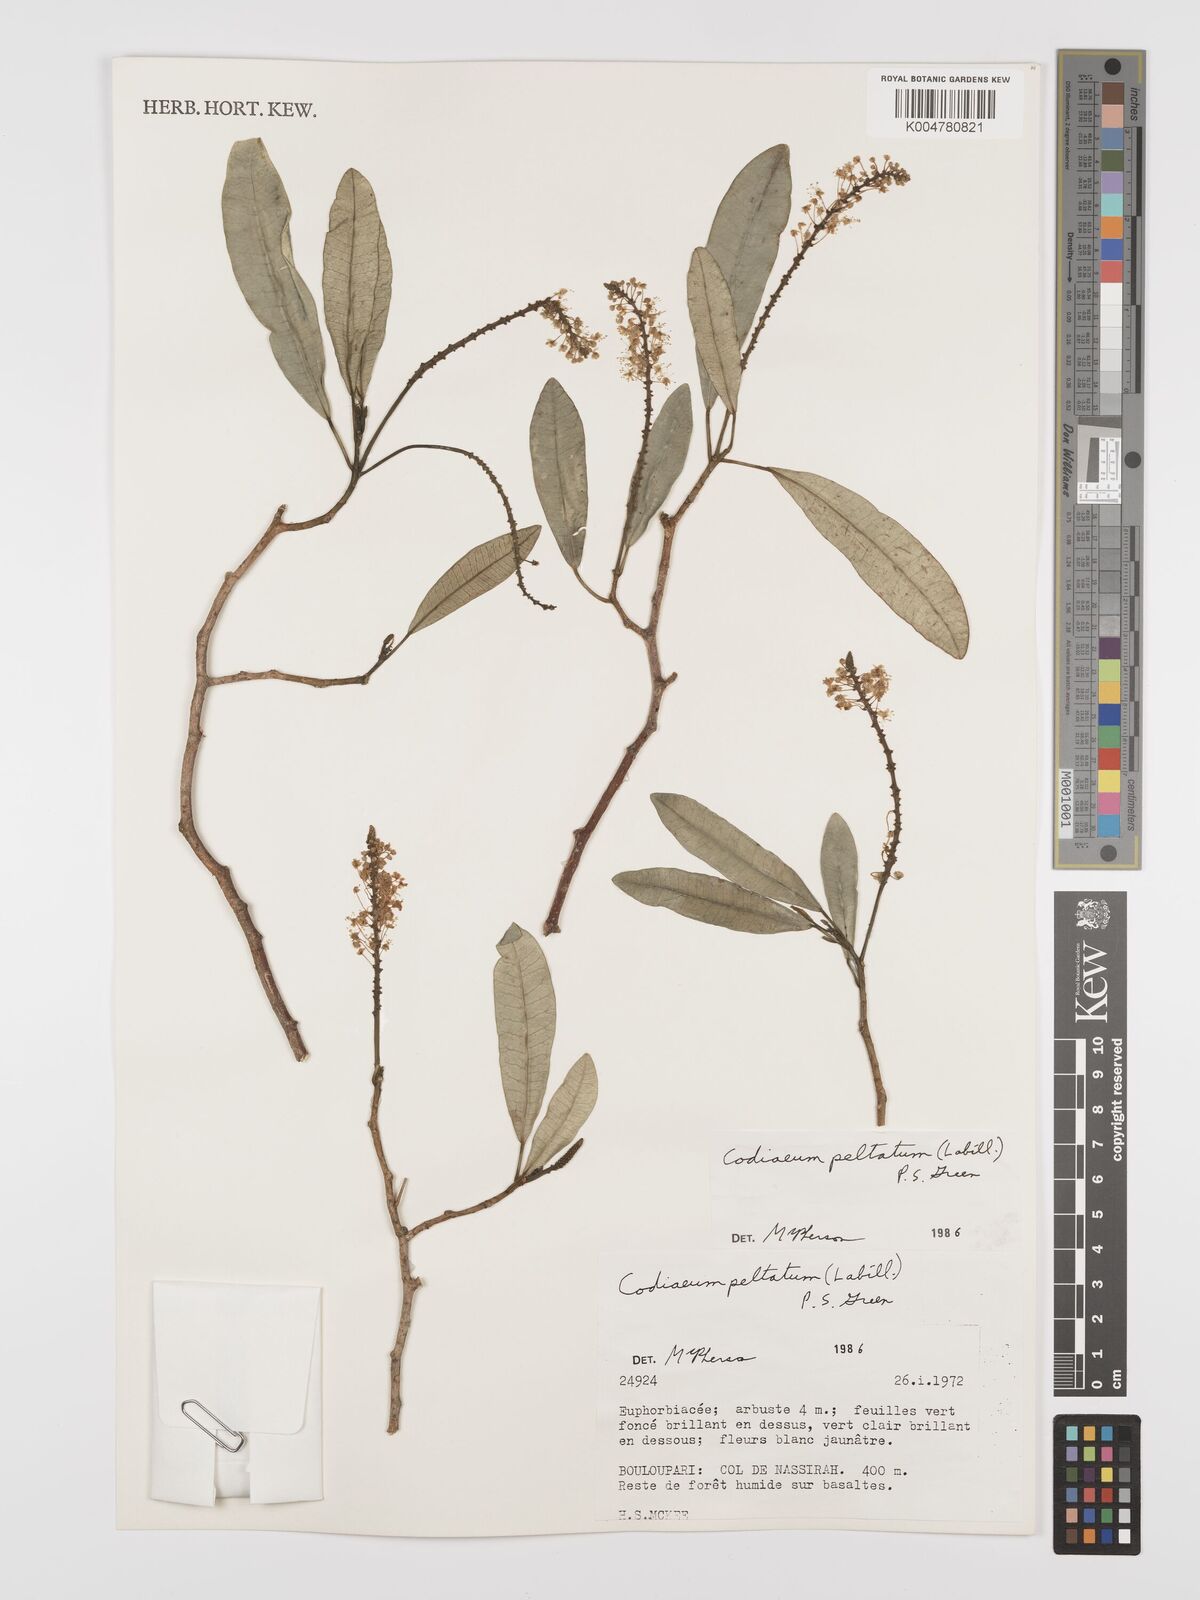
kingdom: Plantae
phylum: Tracheophyta
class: Magnoliopsida
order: Malpighiales
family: Euphorbiaceae
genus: Codiaeum
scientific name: Codiaeum peltatum
